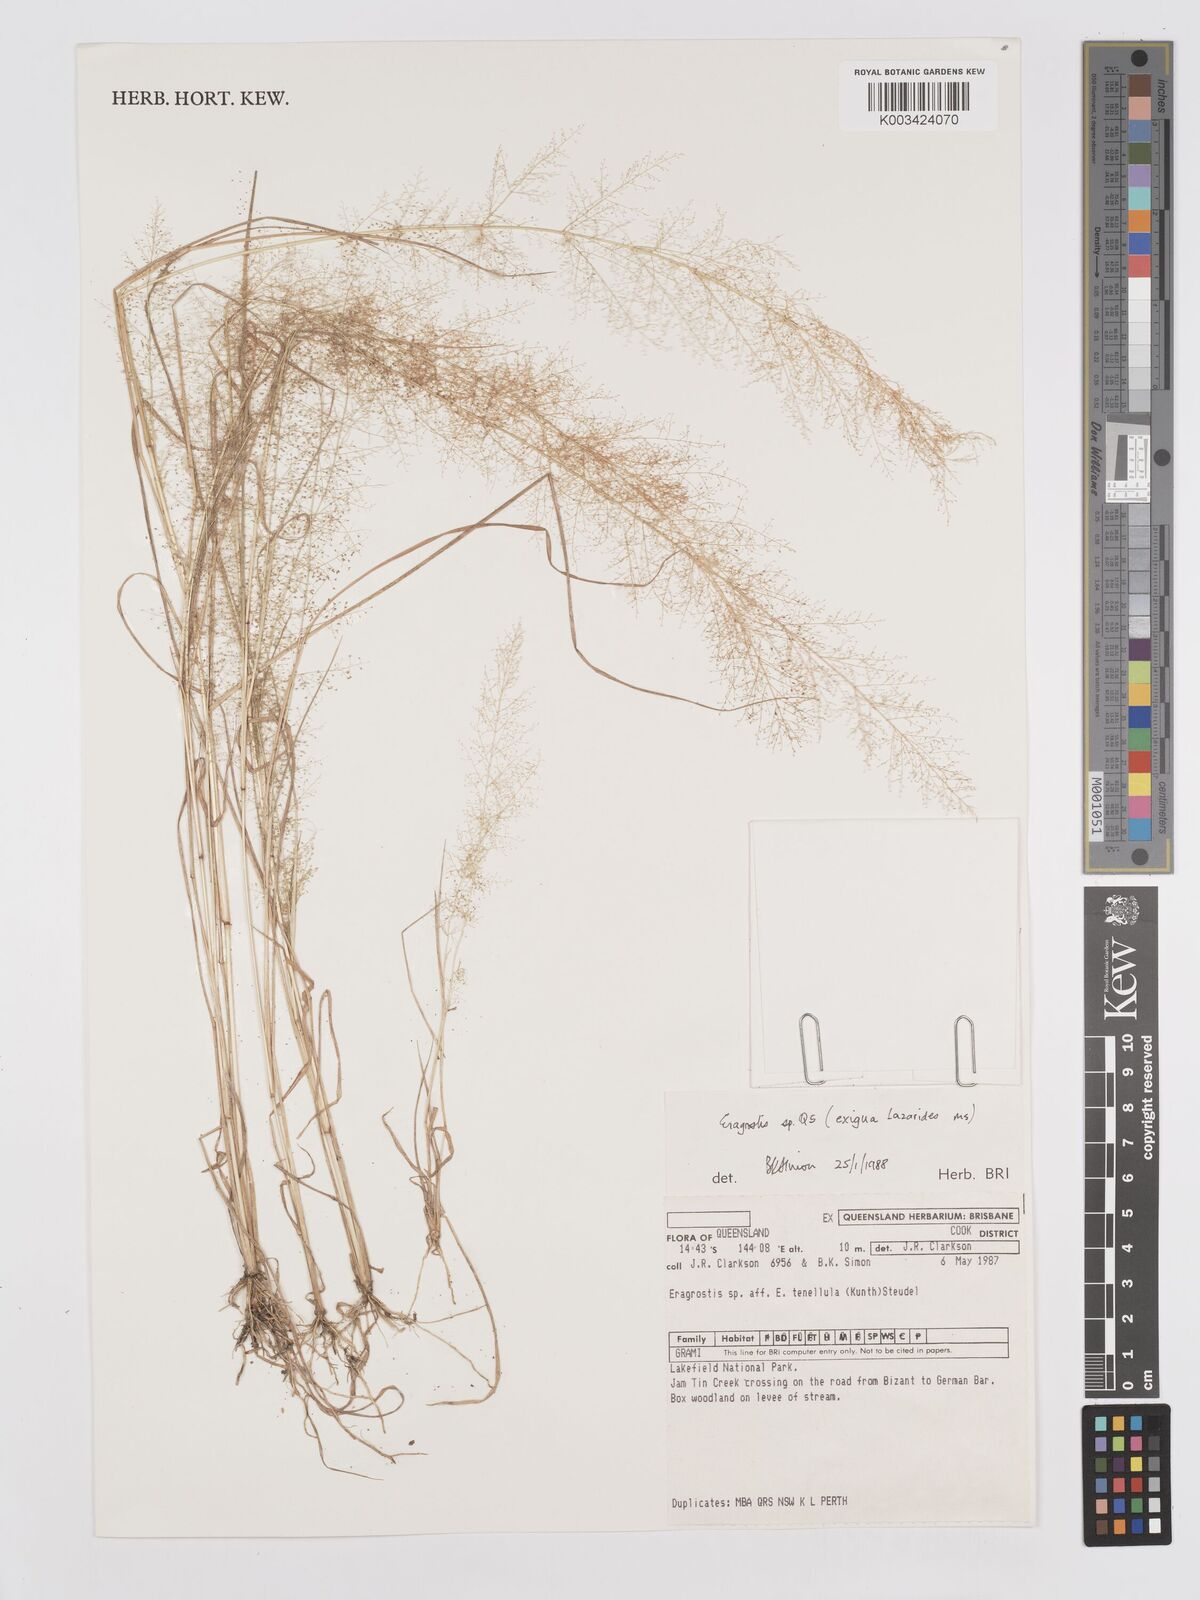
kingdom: Plantae
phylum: Tracheophyta
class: Liliopsida
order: Poales
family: Poaceae
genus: Eragrostis
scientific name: Eragrostis exigua
